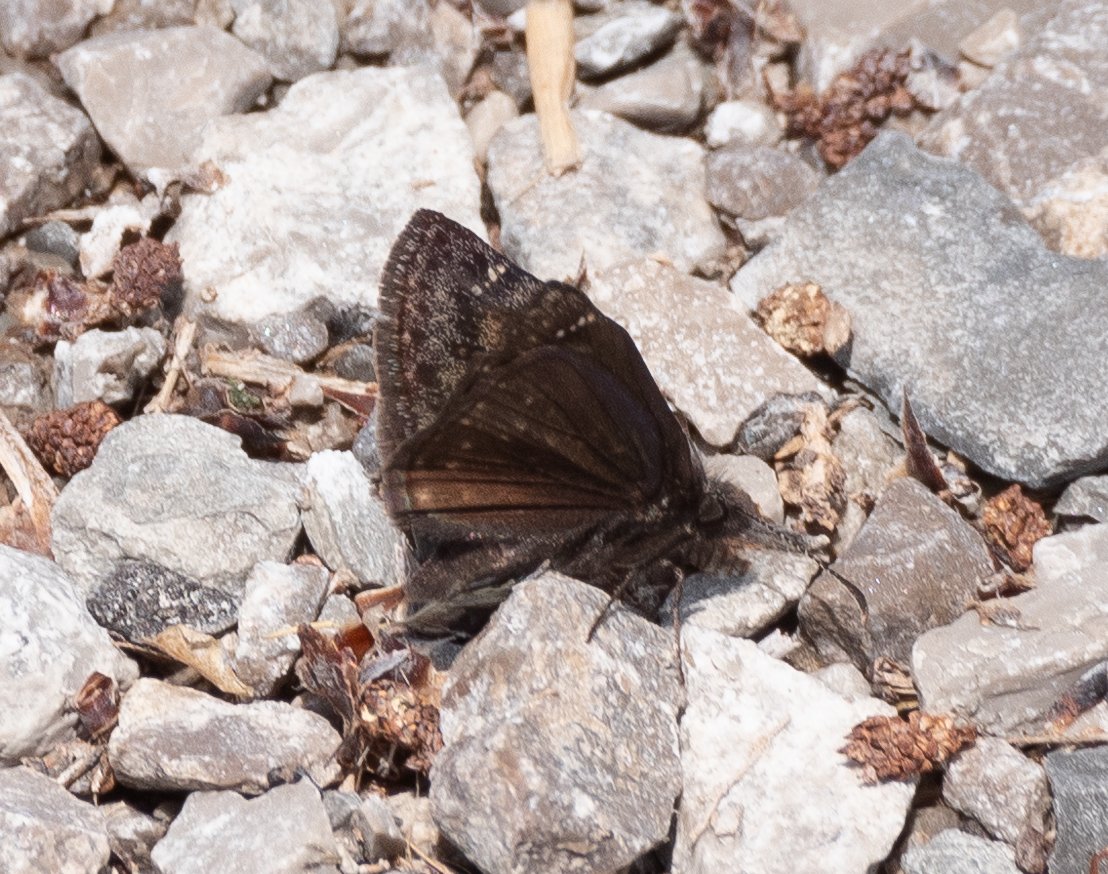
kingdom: Animalia
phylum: Arthropoda
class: Insecta
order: Lepidoptera
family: Hesperiidae
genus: Gesta
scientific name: Gesta
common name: Wild Indigo Duskywing
